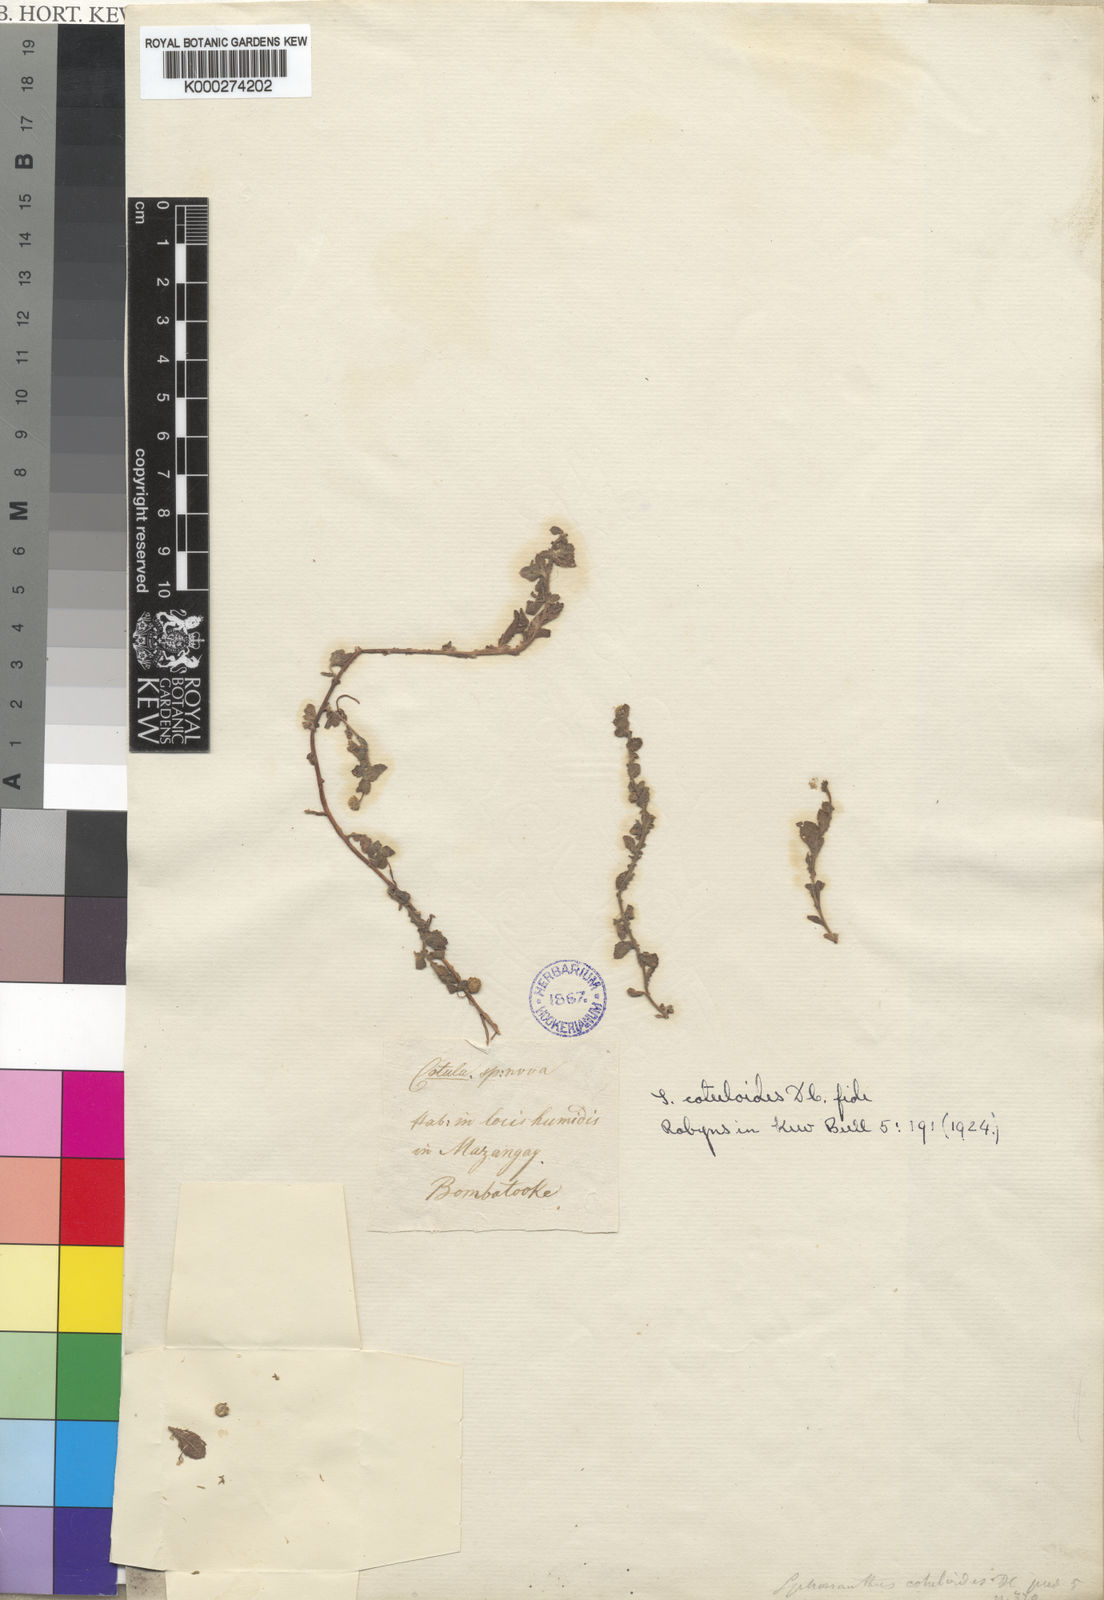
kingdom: Plantae
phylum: Tracheophyta
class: Magnoliopsida
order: Asterales
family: Asteraceae
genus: Sphaeranthus
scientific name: Sphaeranthus cotuloides
